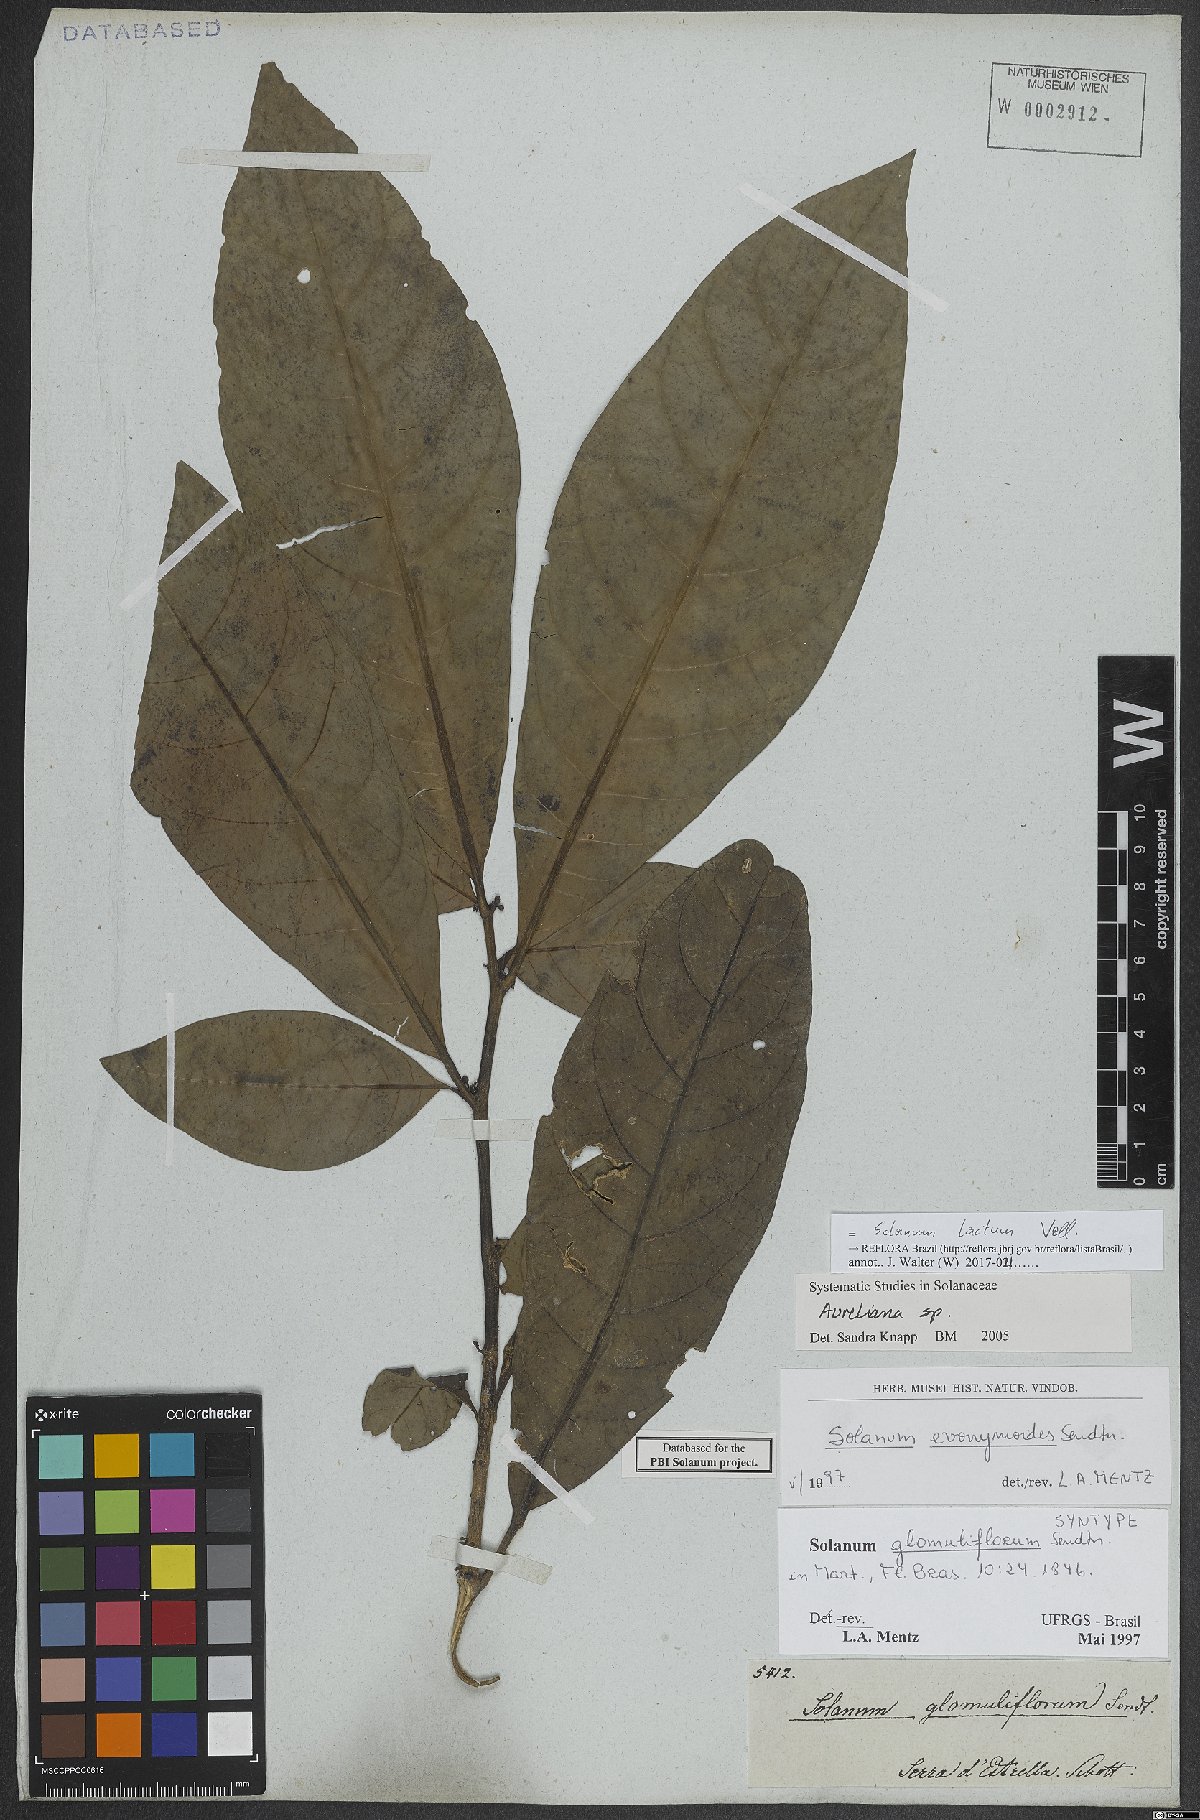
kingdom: Plantae
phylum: Tracheophyta
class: Magnoliopsida
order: Solanales
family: Solanaceae
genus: Solanum
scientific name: Solanum lacteum
